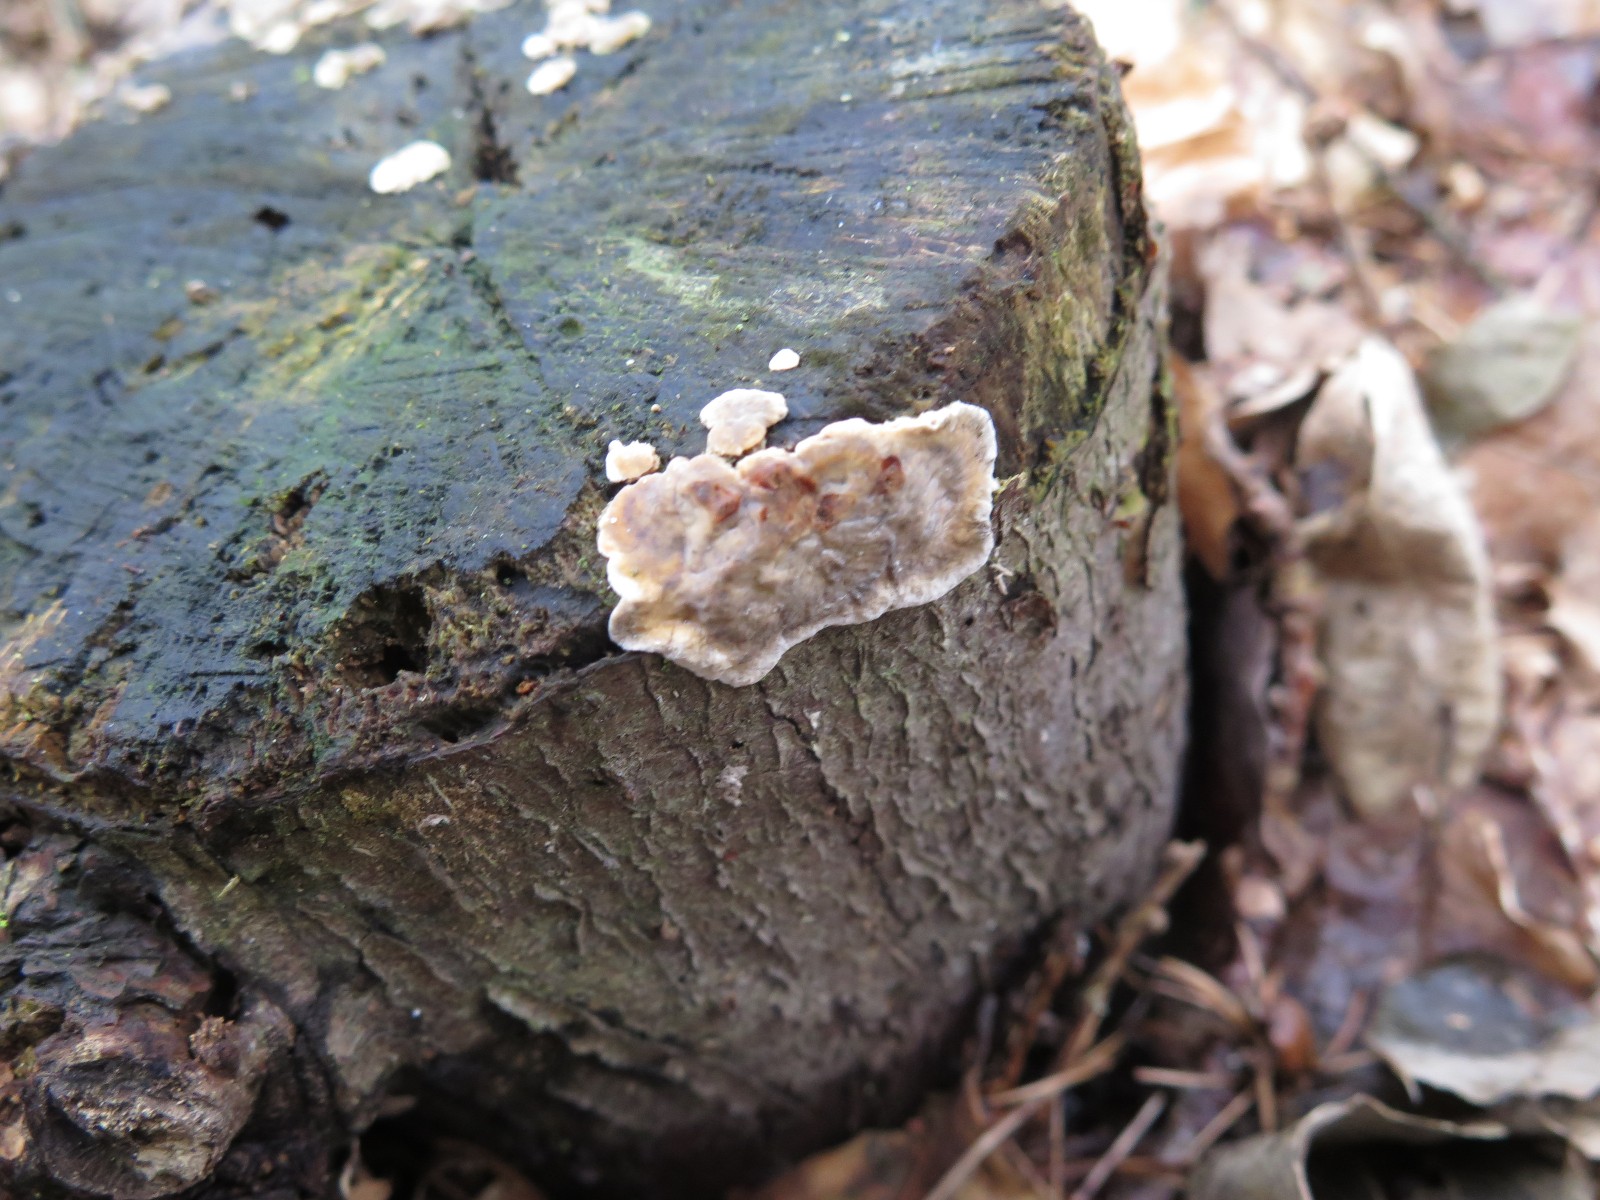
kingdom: Fungi
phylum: Basidiomycota
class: Agaricomycetes
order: Russulales
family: Stereaceae
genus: Stereum
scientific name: Stereum sanguinolentum
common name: blødende lædersvamp
